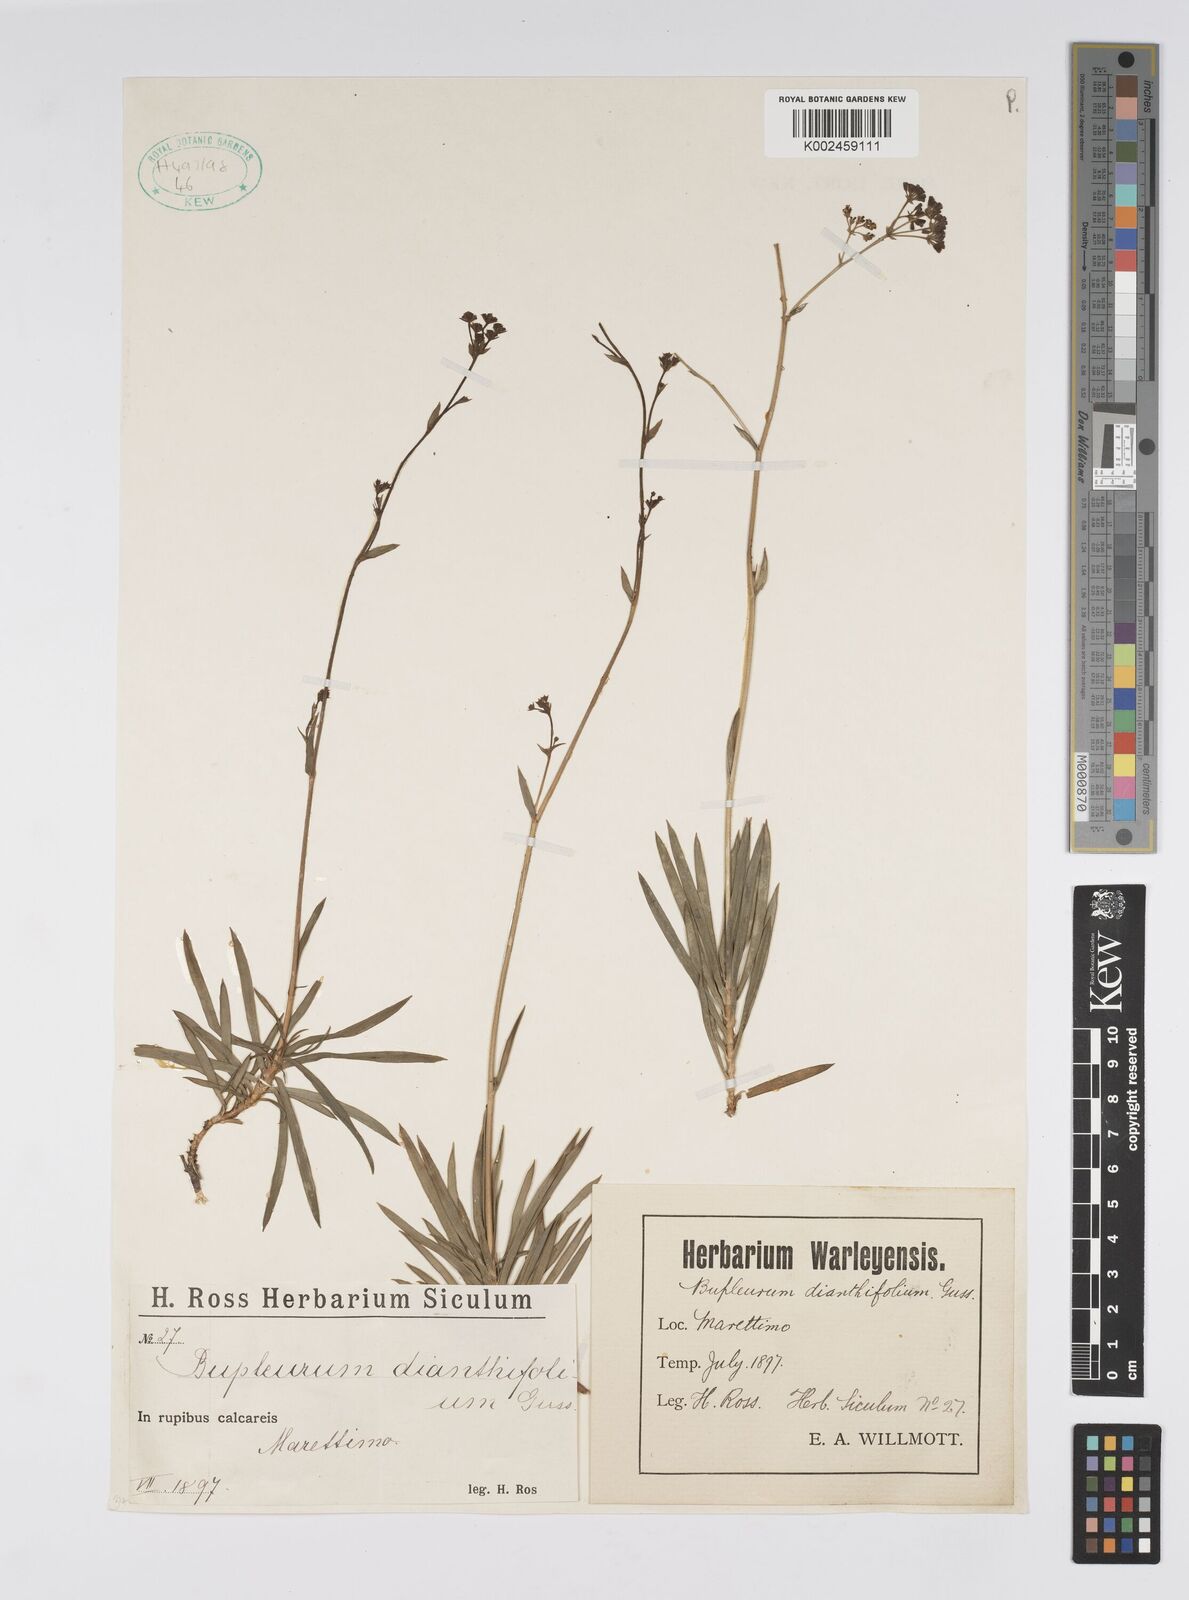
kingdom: Plantae
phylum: Tracheophyta
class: Magnoliopsida
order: Apiales
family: Apiaceae
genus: Bupleurum
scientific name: Bupleurum dianthifolium
